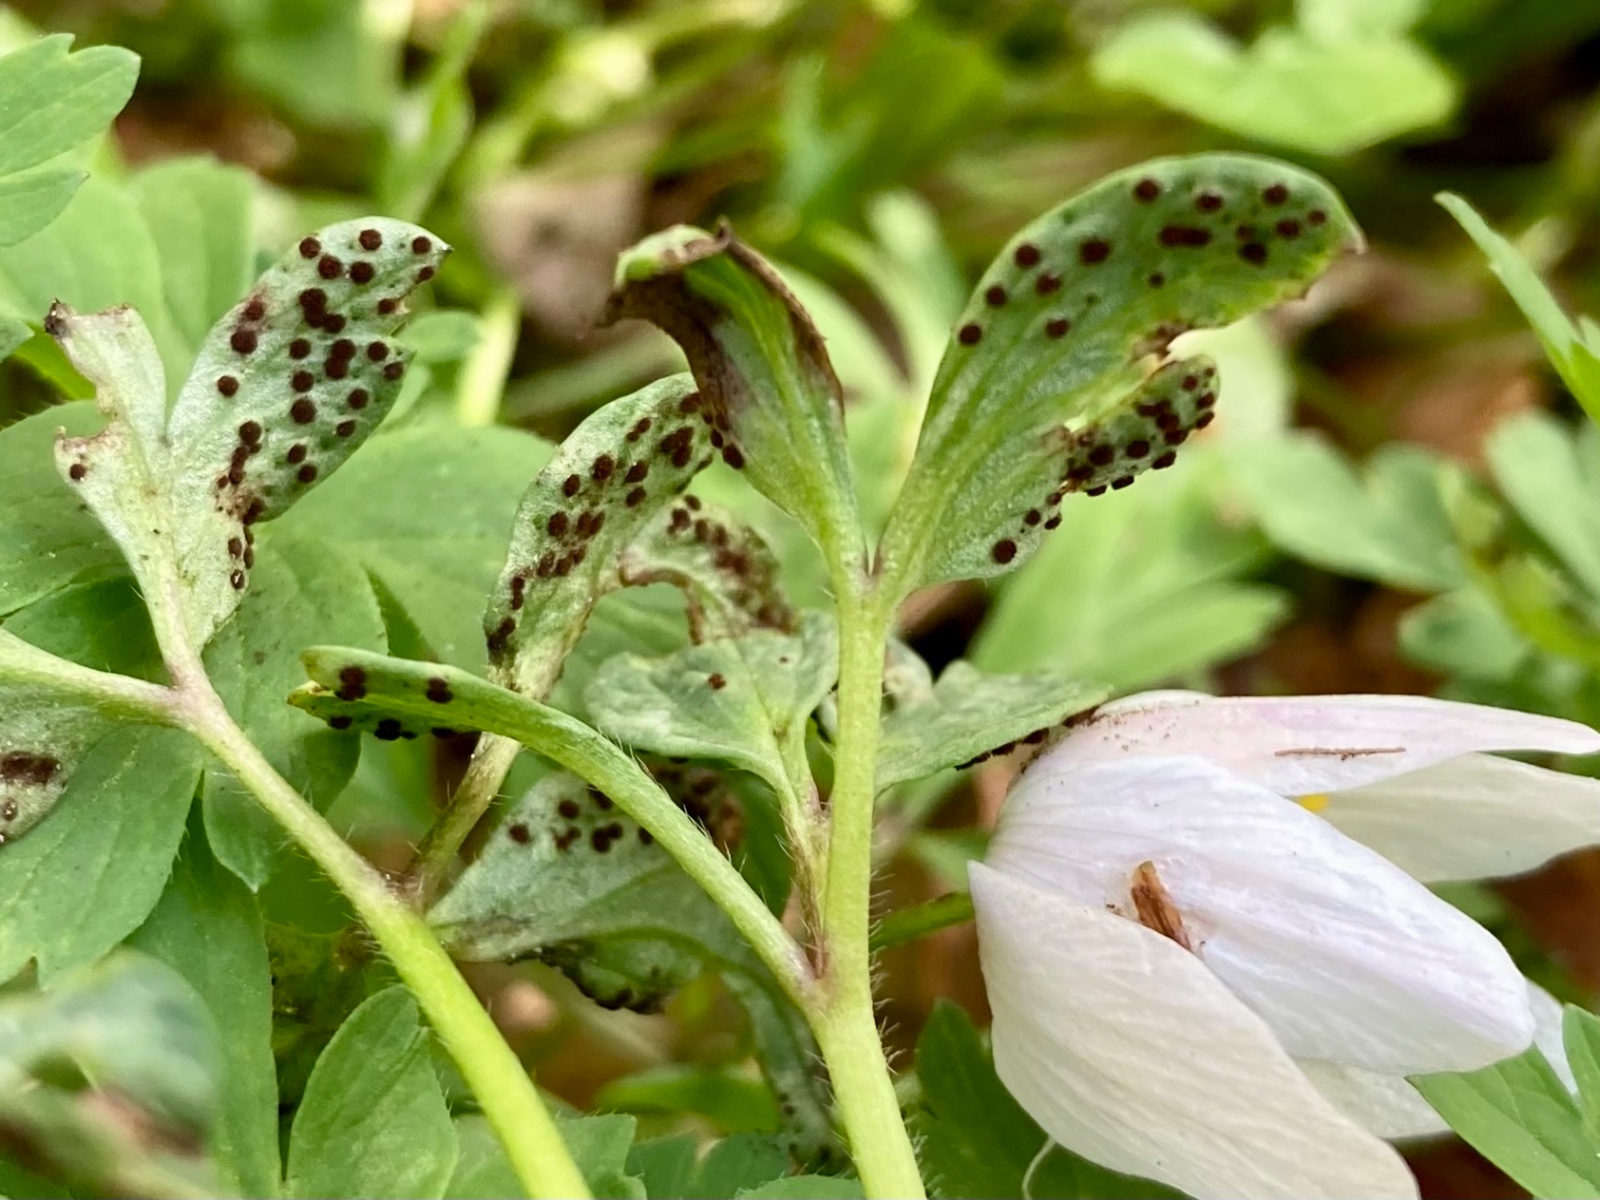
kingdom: Fungi
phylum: Basidiomycota
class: Pucciniomycetes
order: Pucciniales
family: Tranzscheliaceae
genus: Tranzschelia
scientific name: Tranzschelia anemones
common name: anemone-knæksporerust
